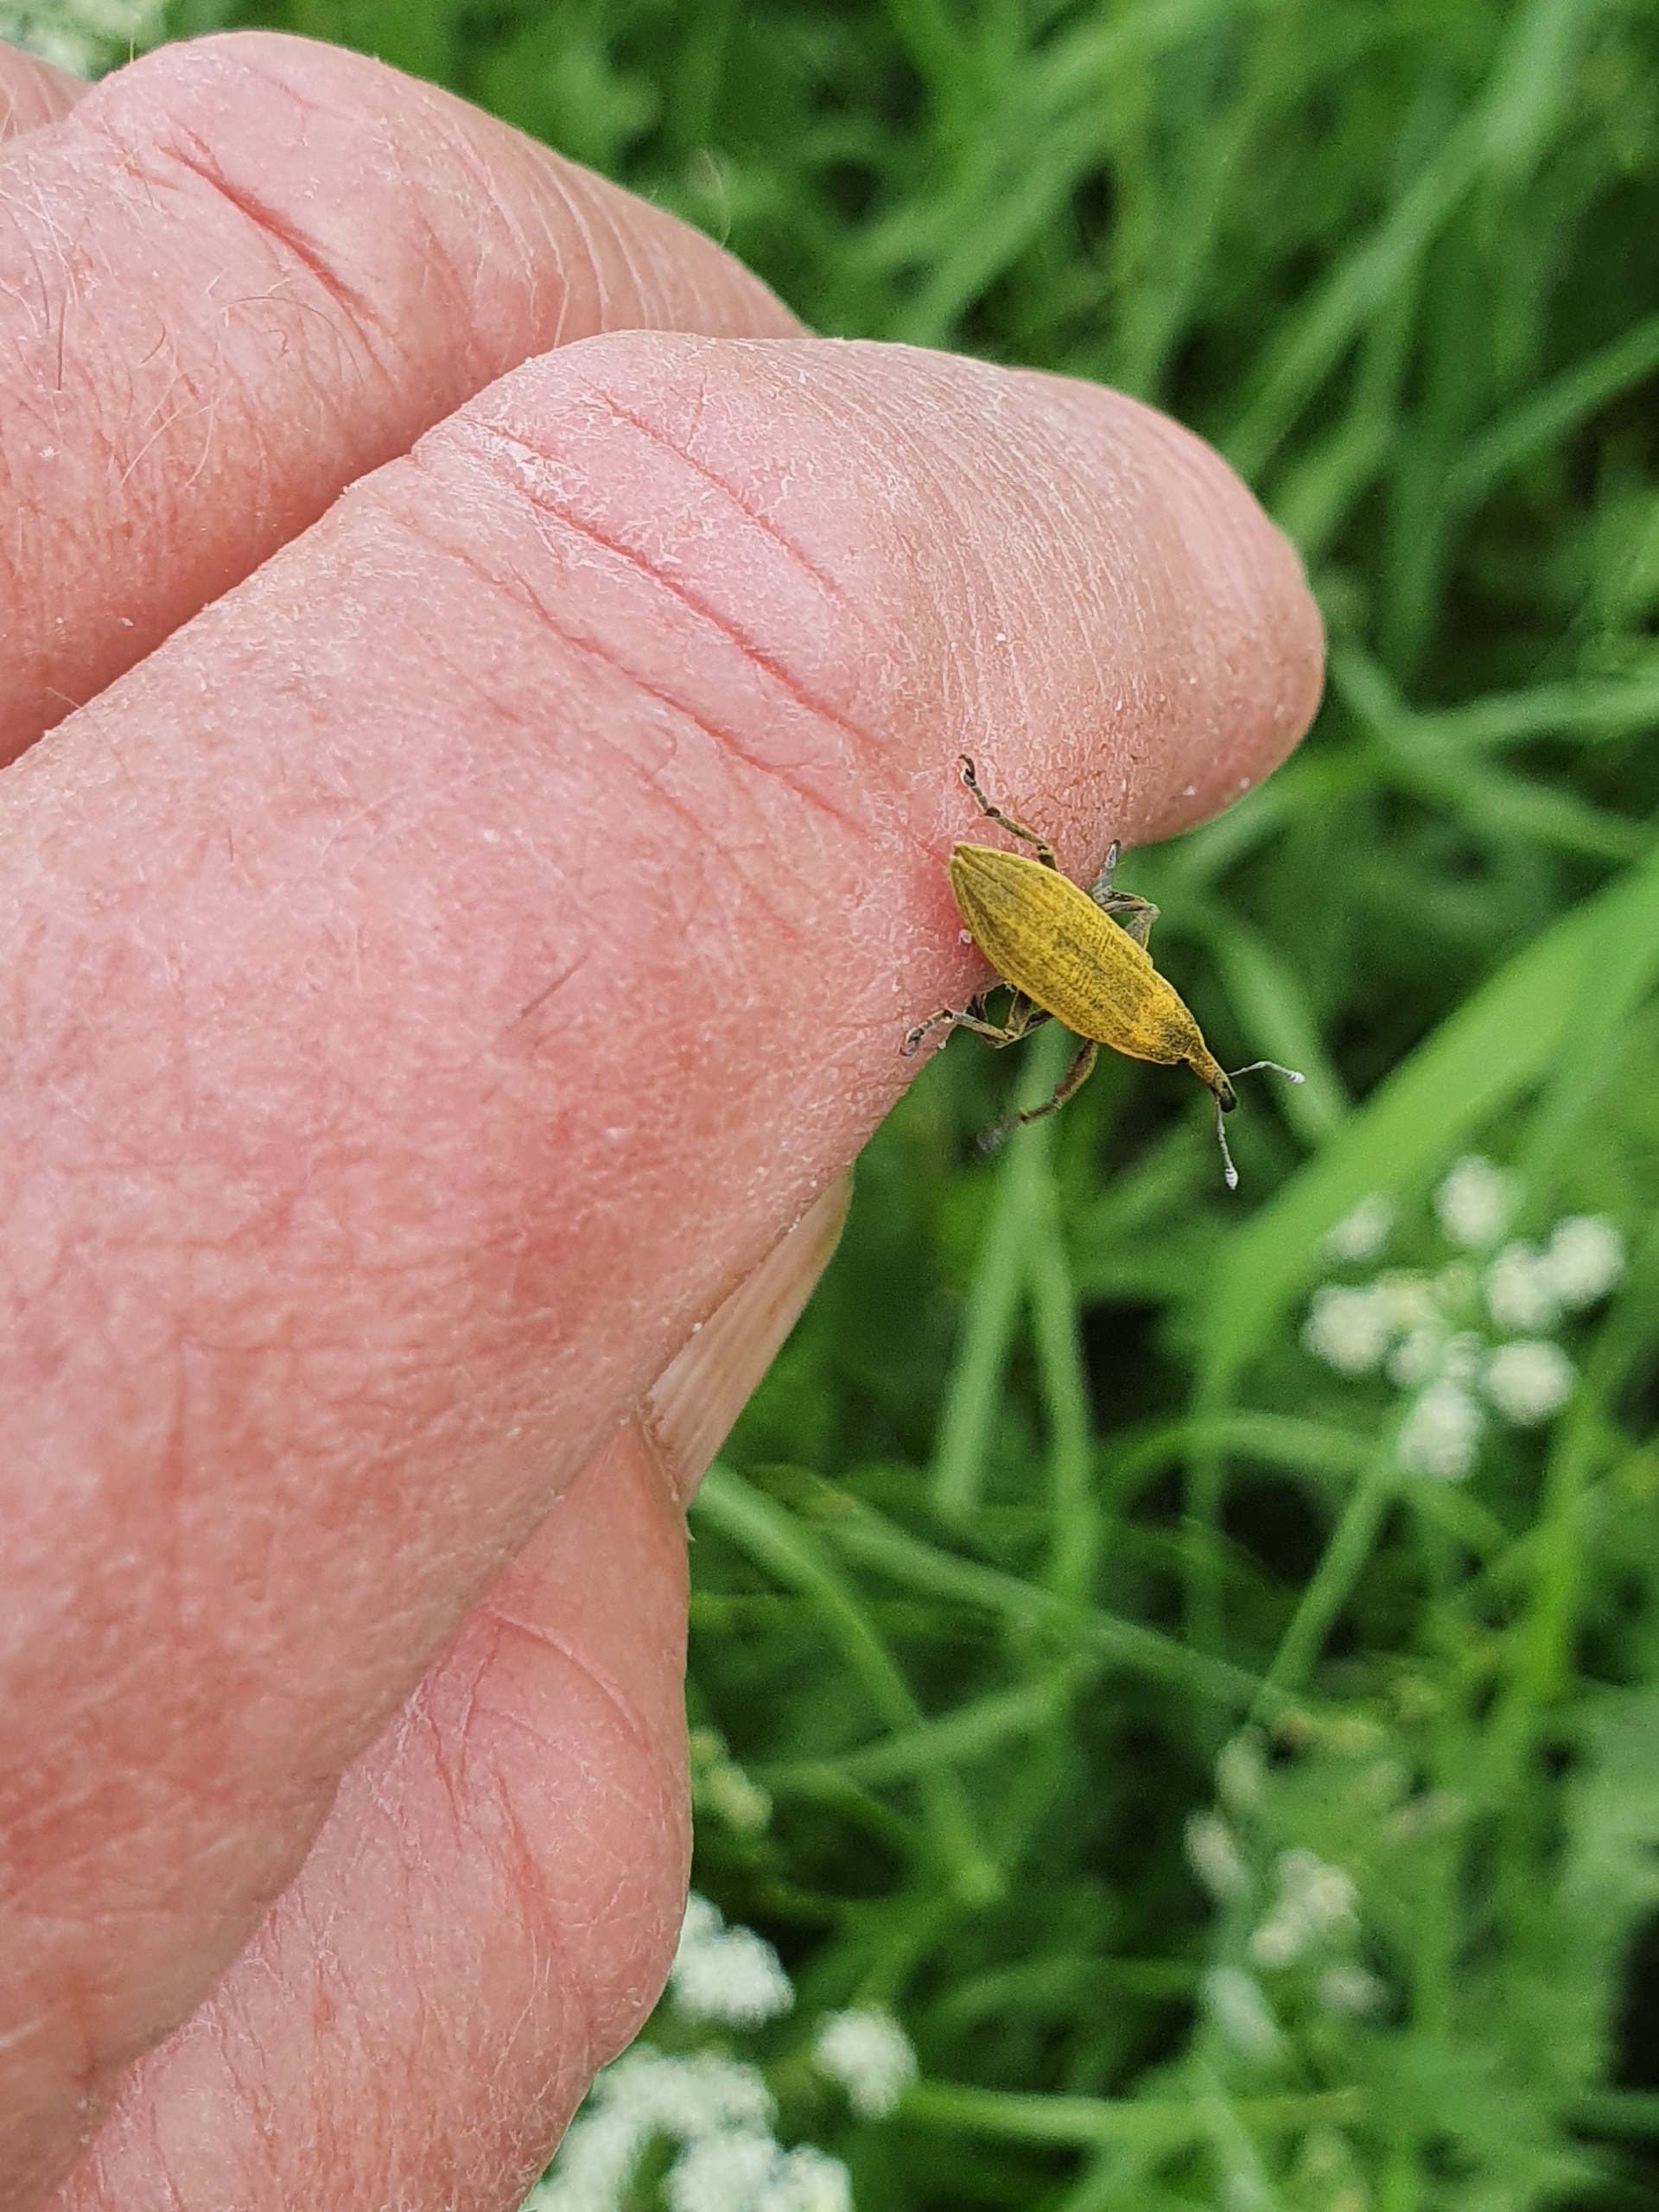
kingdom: Animalia
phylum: Arthropoda
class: Insecta
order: Coleoptera
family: Curculionidae
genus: Lixus
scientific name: Lixus iridis
